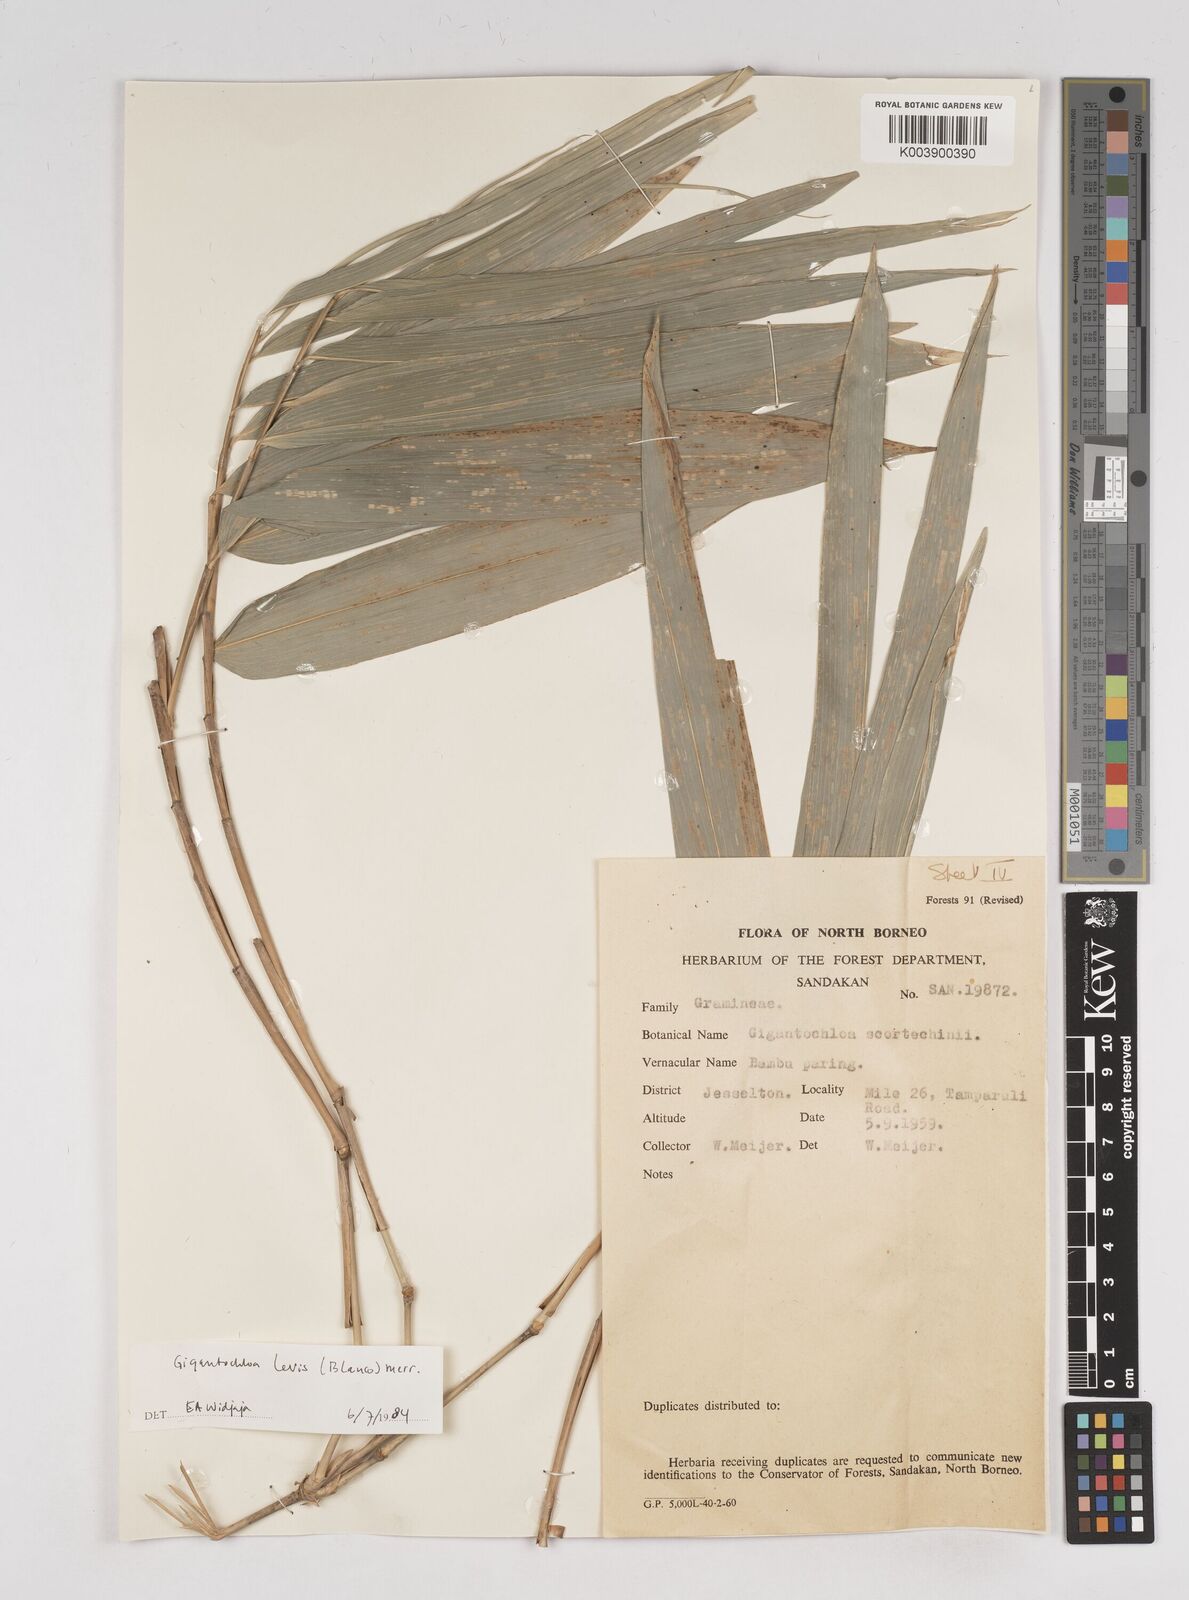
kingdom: Plantae
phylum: Tracheophyta
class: Liliopsida
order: Poales
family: Poaceae
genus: Gigantochloa
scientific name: Gigantochloa levis
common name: Smooth-shoot gigantochloa
